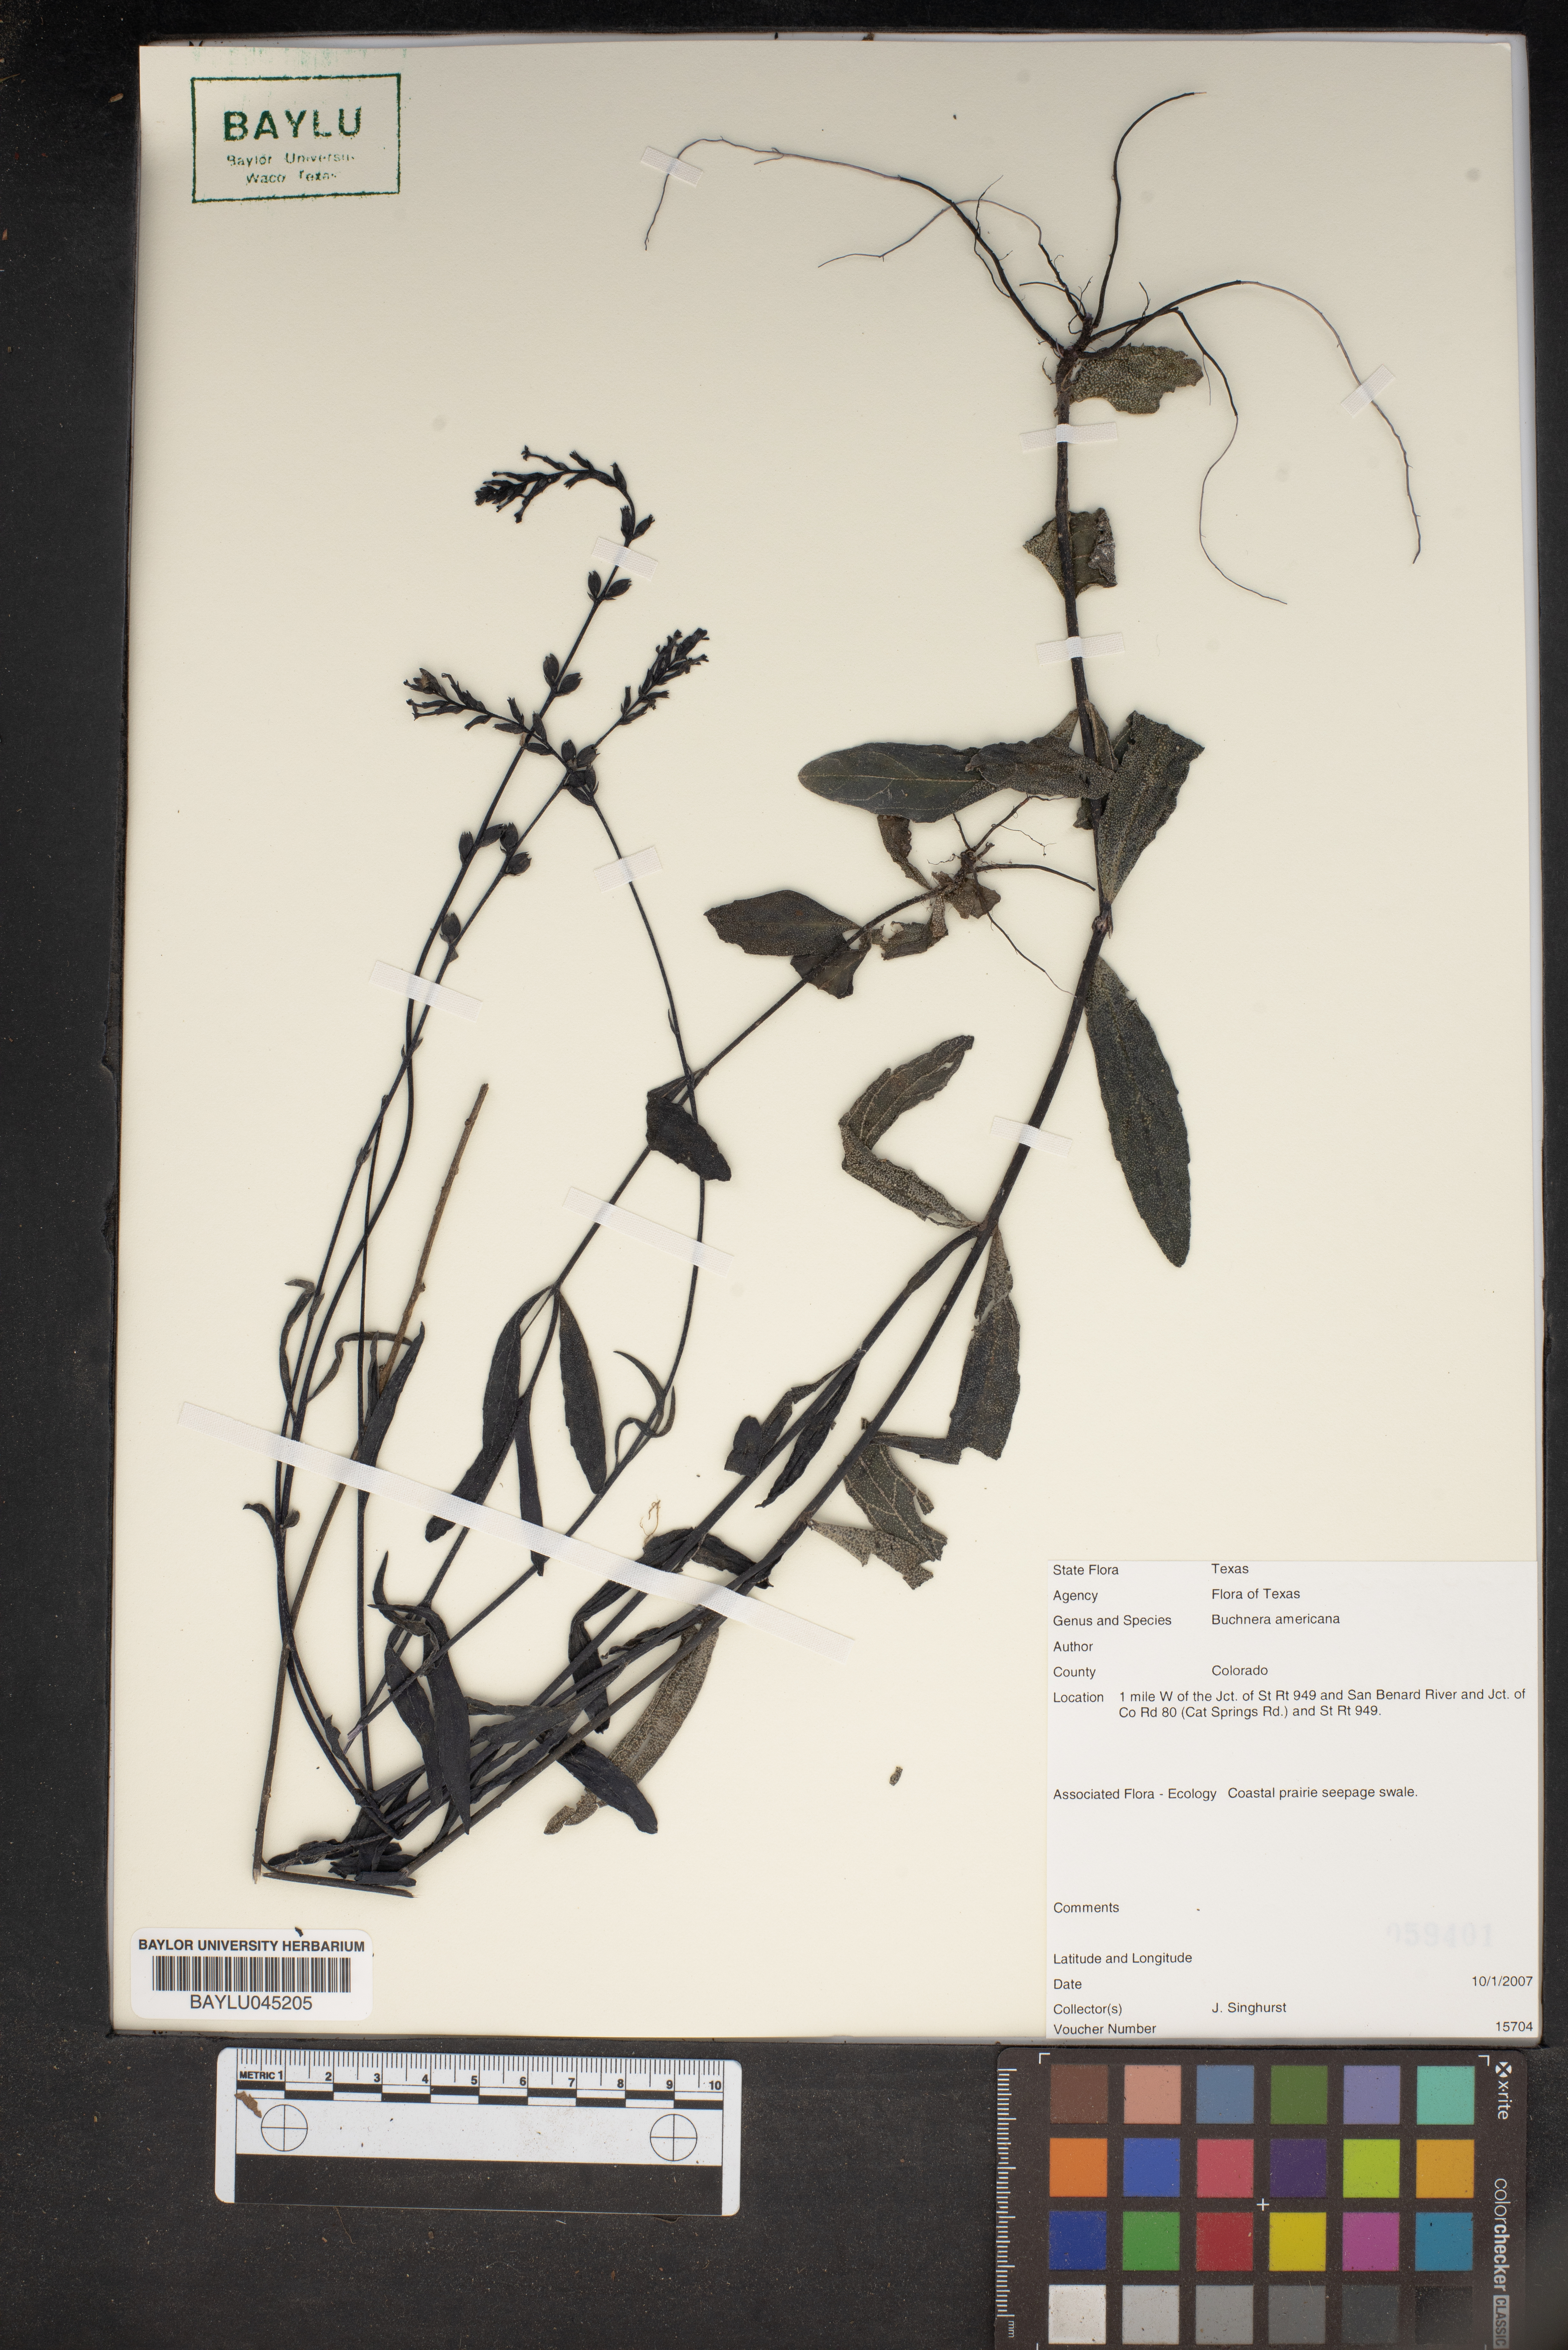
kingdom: Plantae
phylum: Tracheophyta
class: Magnoliopsida
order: Lamiales
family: Orobanchaceae
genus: Buchnera
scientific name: Buchnera americana
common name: American bluehearts
